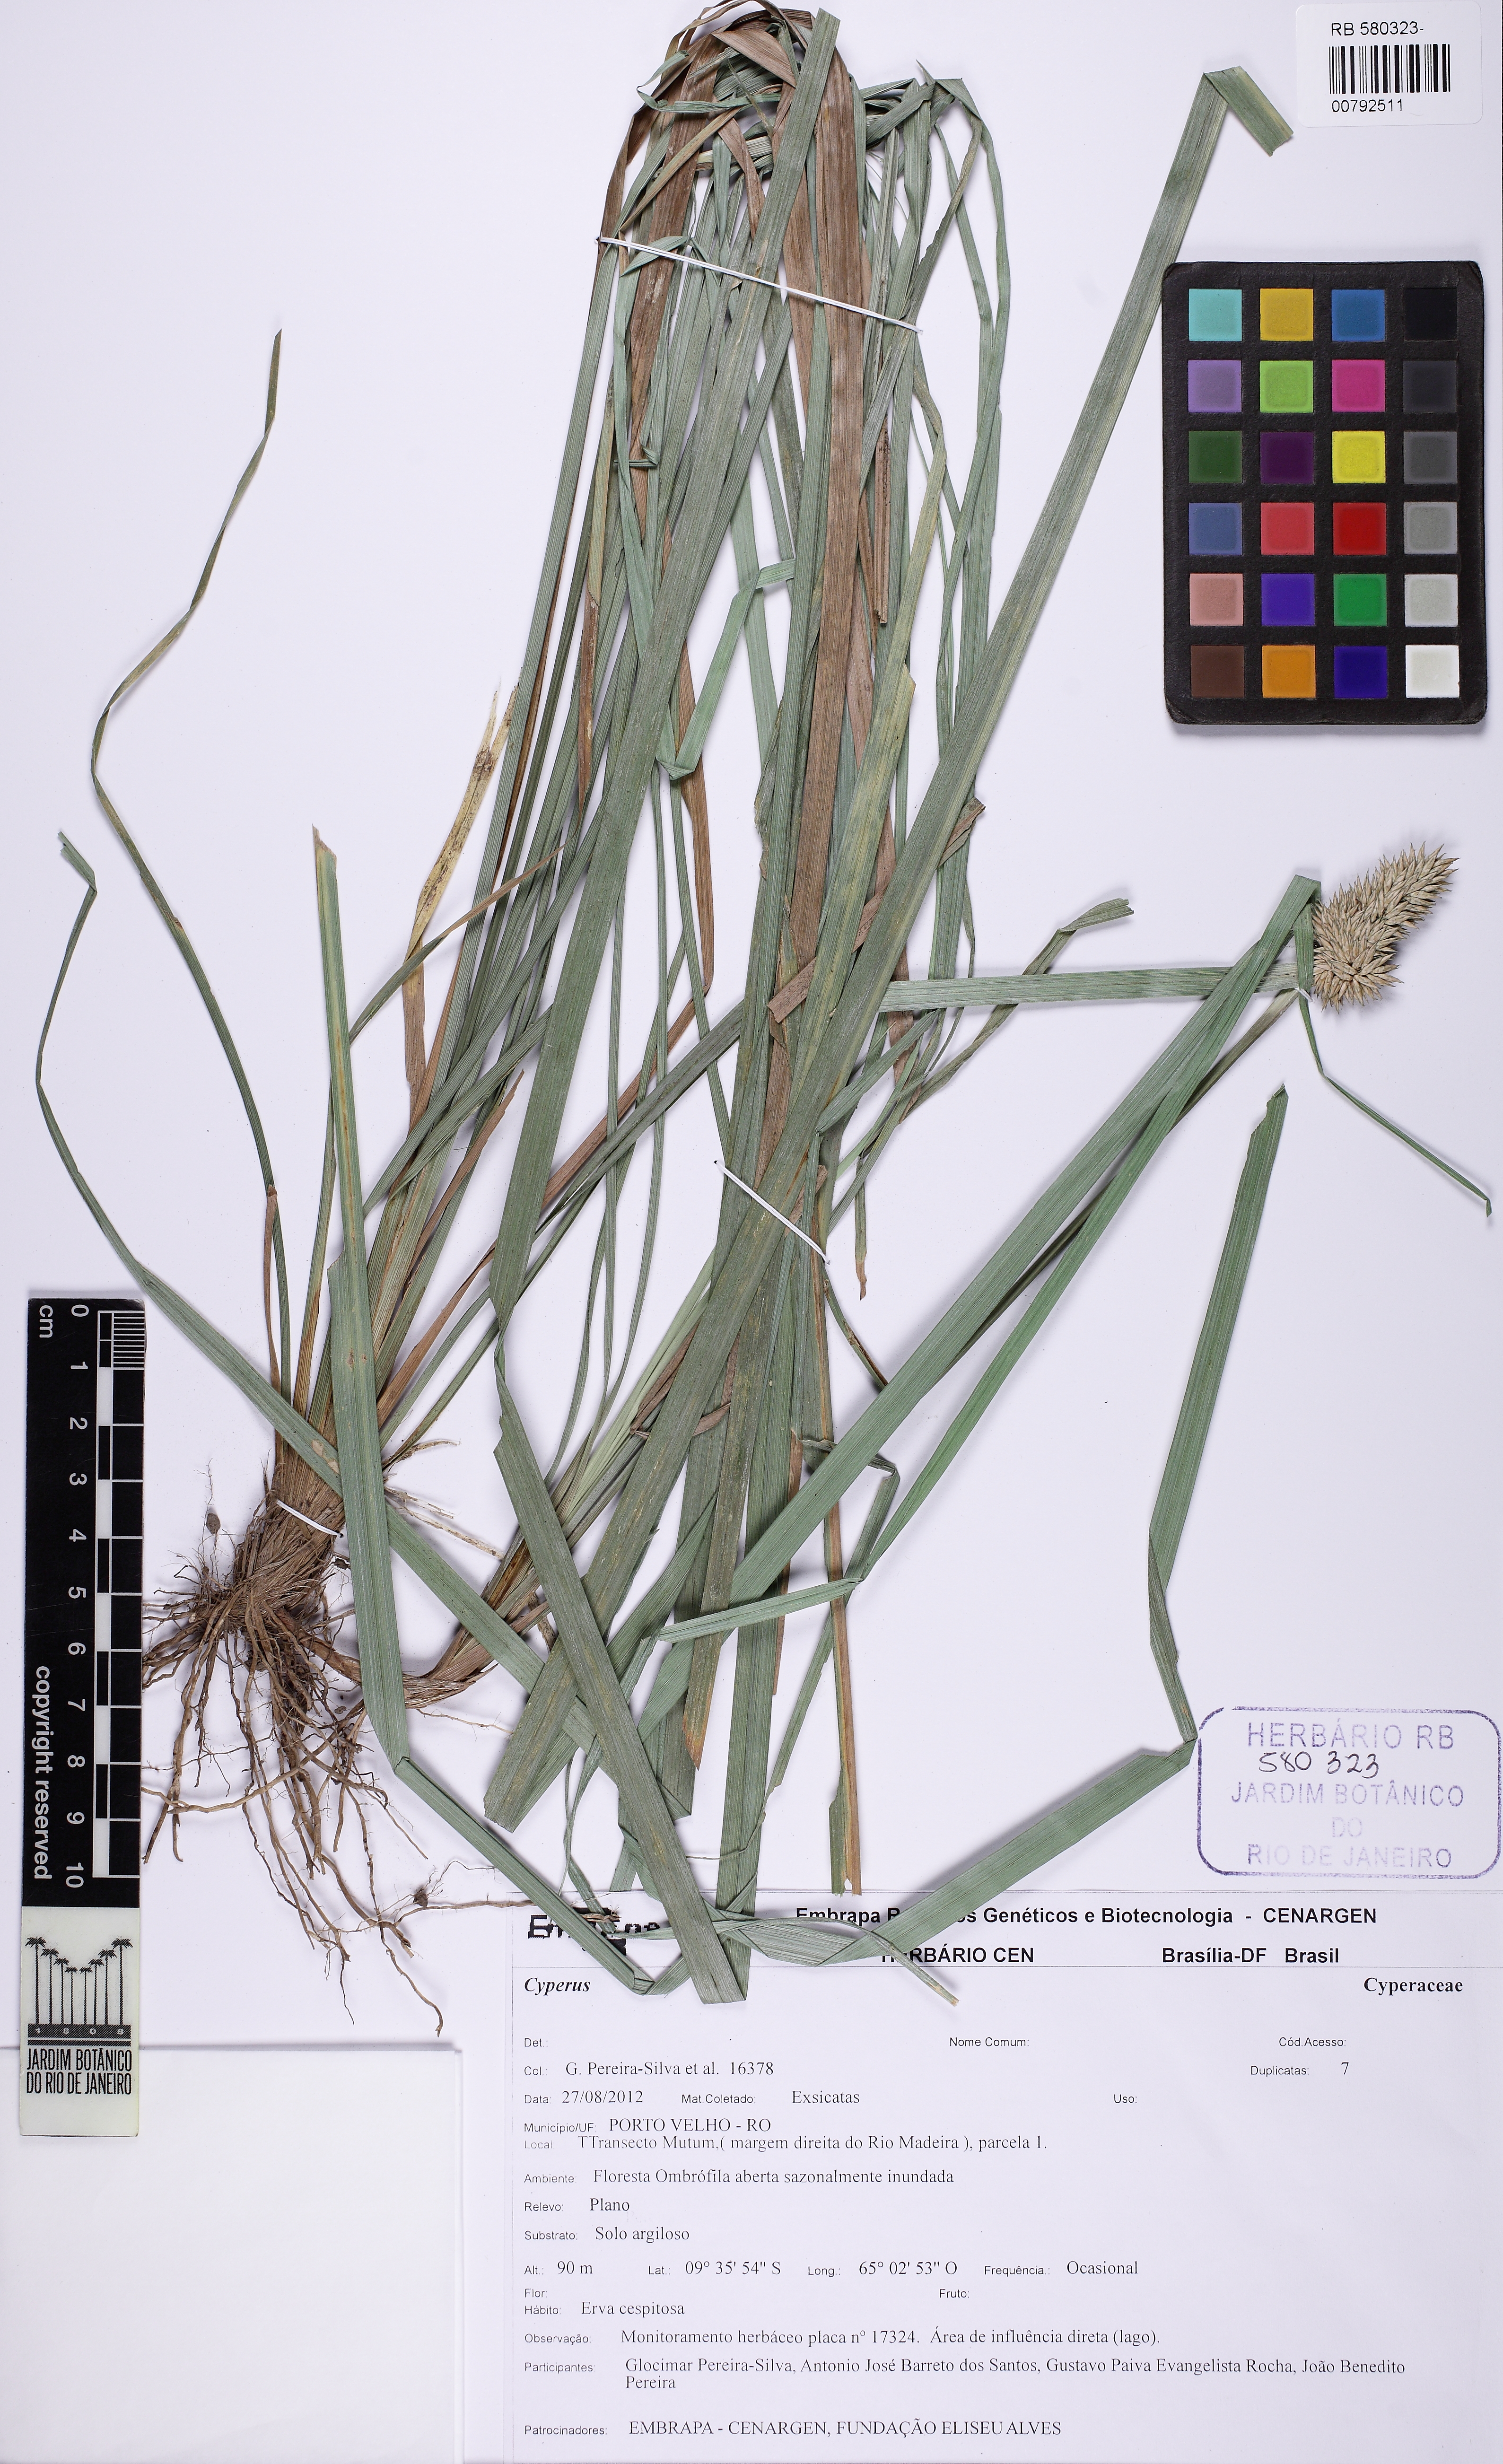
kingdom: Plantae
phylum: Tracheophyta
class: Liliopsida
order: Poales
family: Cyperaceae
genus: Rhynchospora
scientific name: Rhynchospora cephalotes
